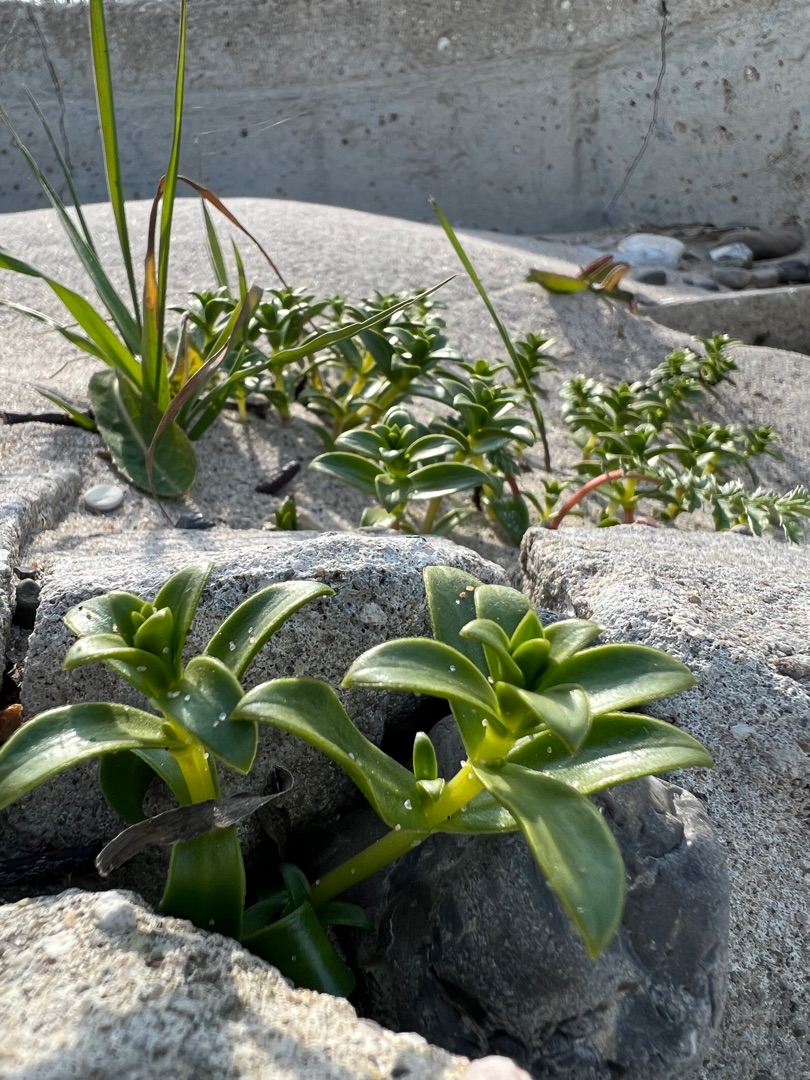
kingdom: Plantae
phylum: Tracheophyta
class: Magnoliopsida
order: Caryophyllales
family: Caryophyllaceae
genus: Honckenya
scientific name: Honckenya peploides
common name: Strandarve
